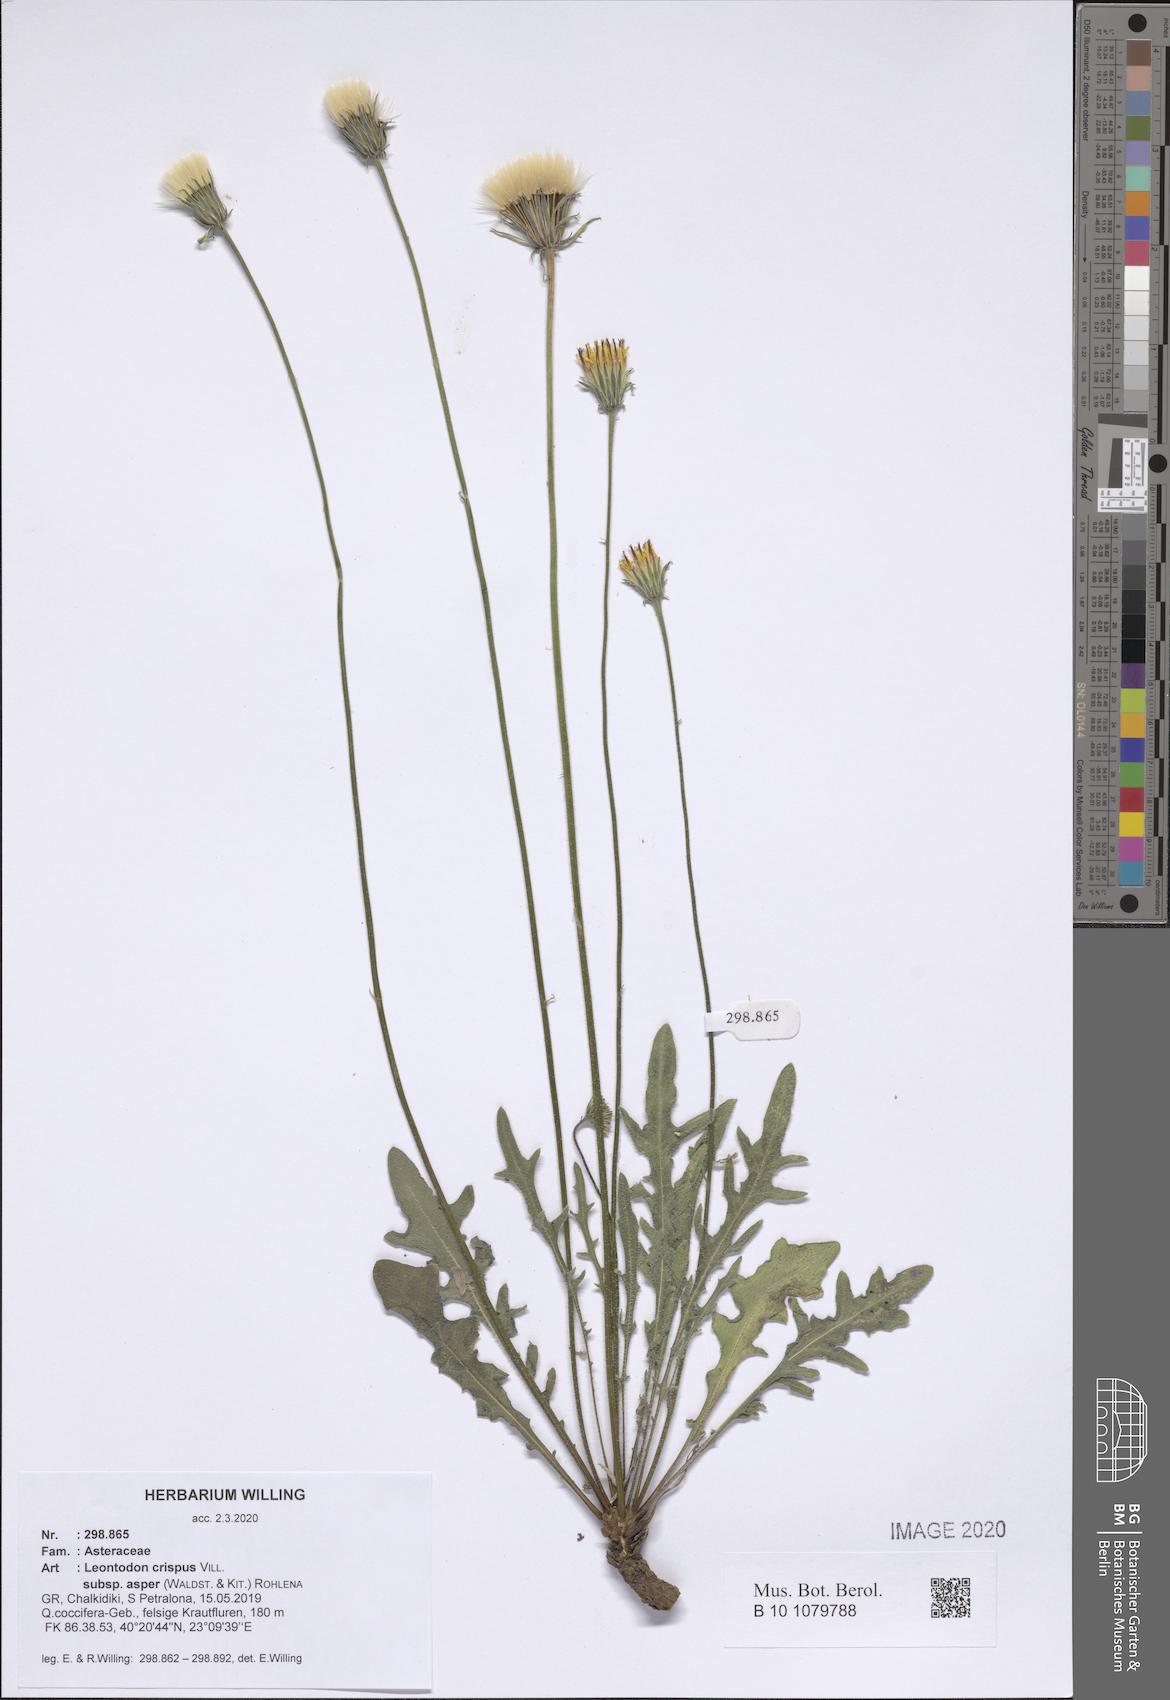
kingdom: Plantae
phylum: Tracheophyta
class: Magnoliopsida
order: Asterales
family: Asteraceae
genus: Leontodon
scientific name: Leontodon biscutellifolius
